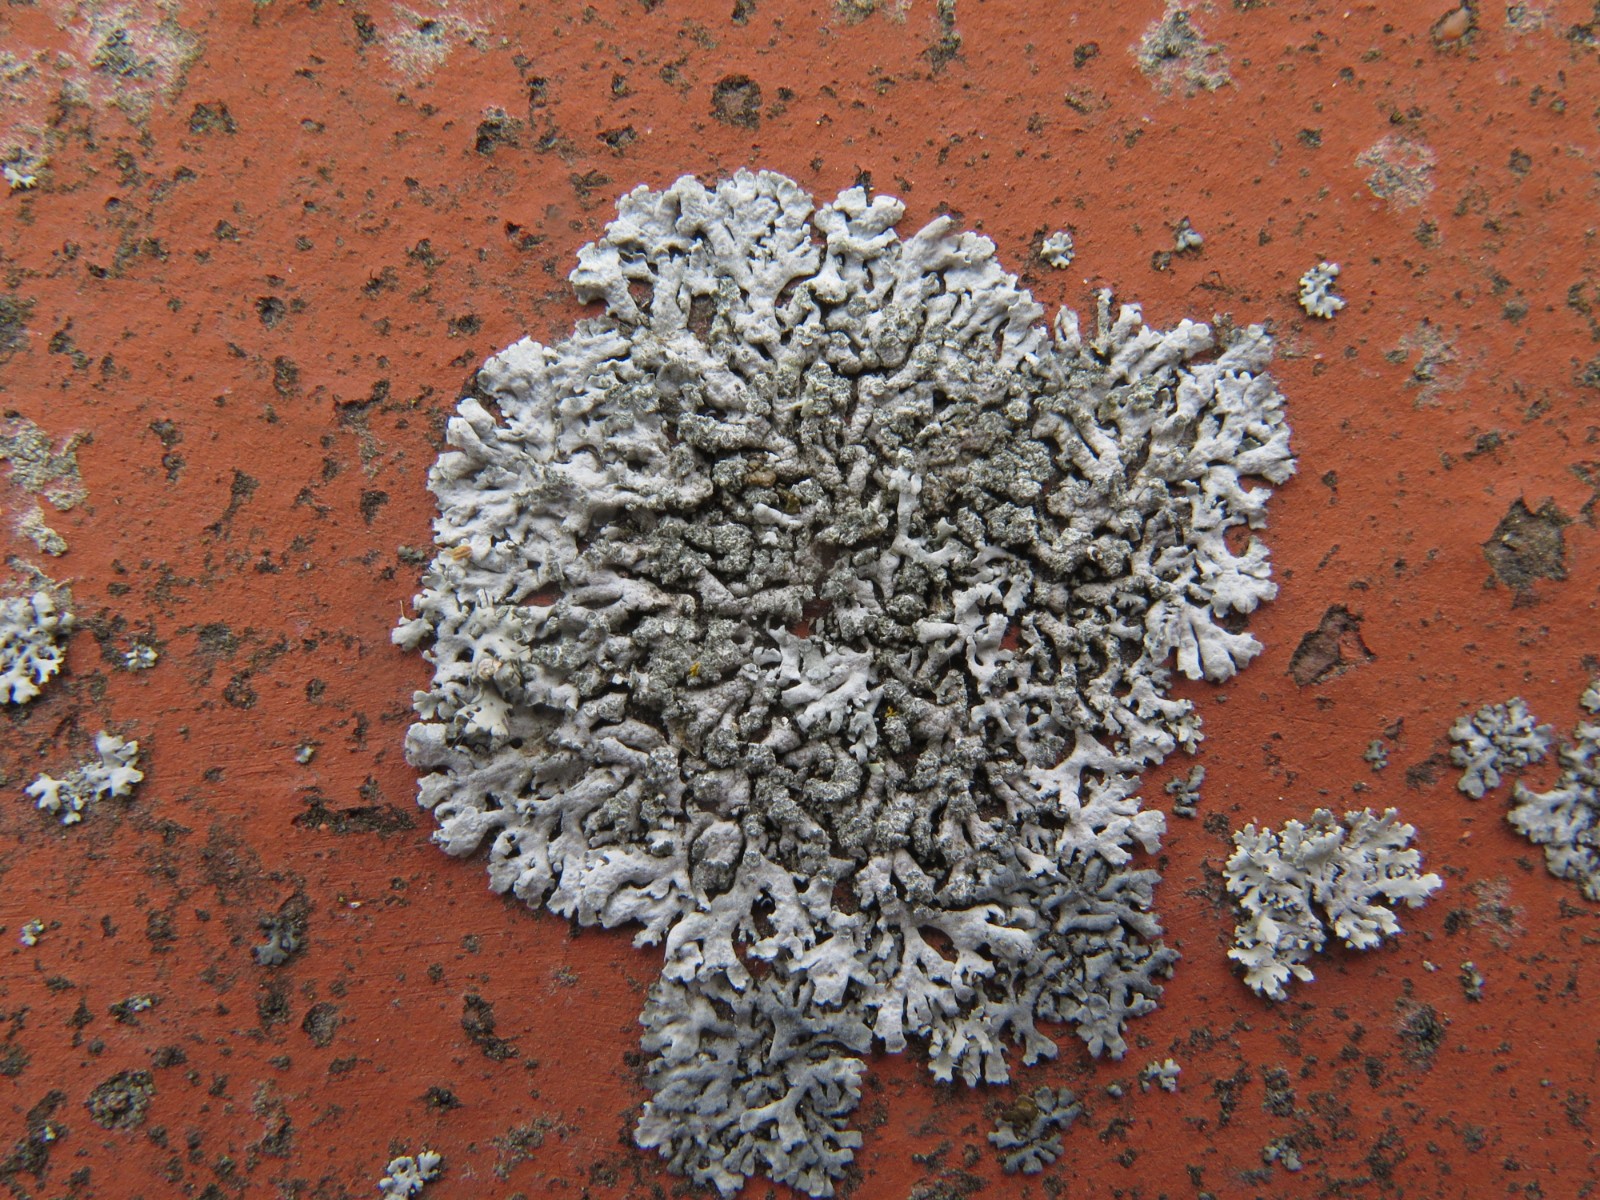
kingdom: Fungi
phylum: Ascomycota
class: Lecanoromycetes
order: Caliciales
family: Physciaceae
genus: Physcia
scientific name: Physcia dubia
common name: fuglestens-rosetlav
